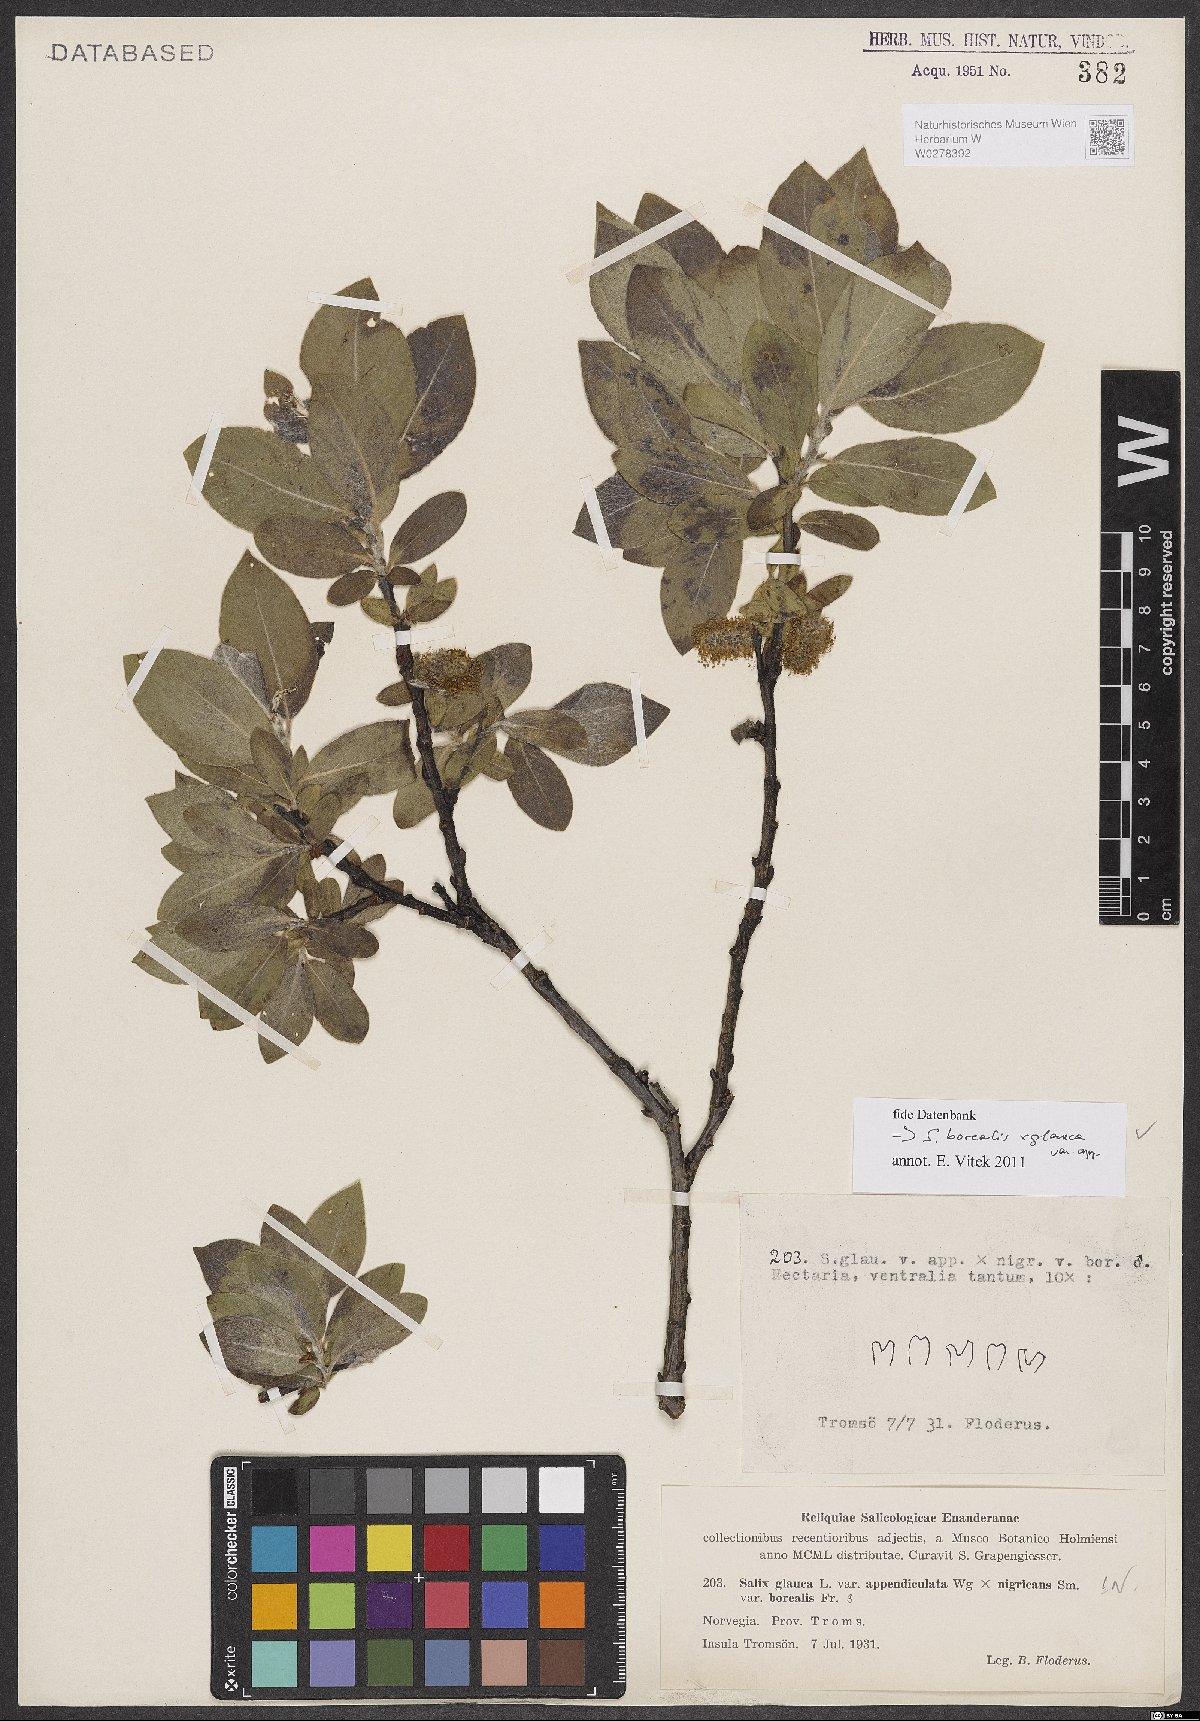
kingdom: Plantae
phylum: Tracheophyta
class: Magnoliopsida
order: Malpighiales
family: Salicaceae
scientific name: Salicaceae
